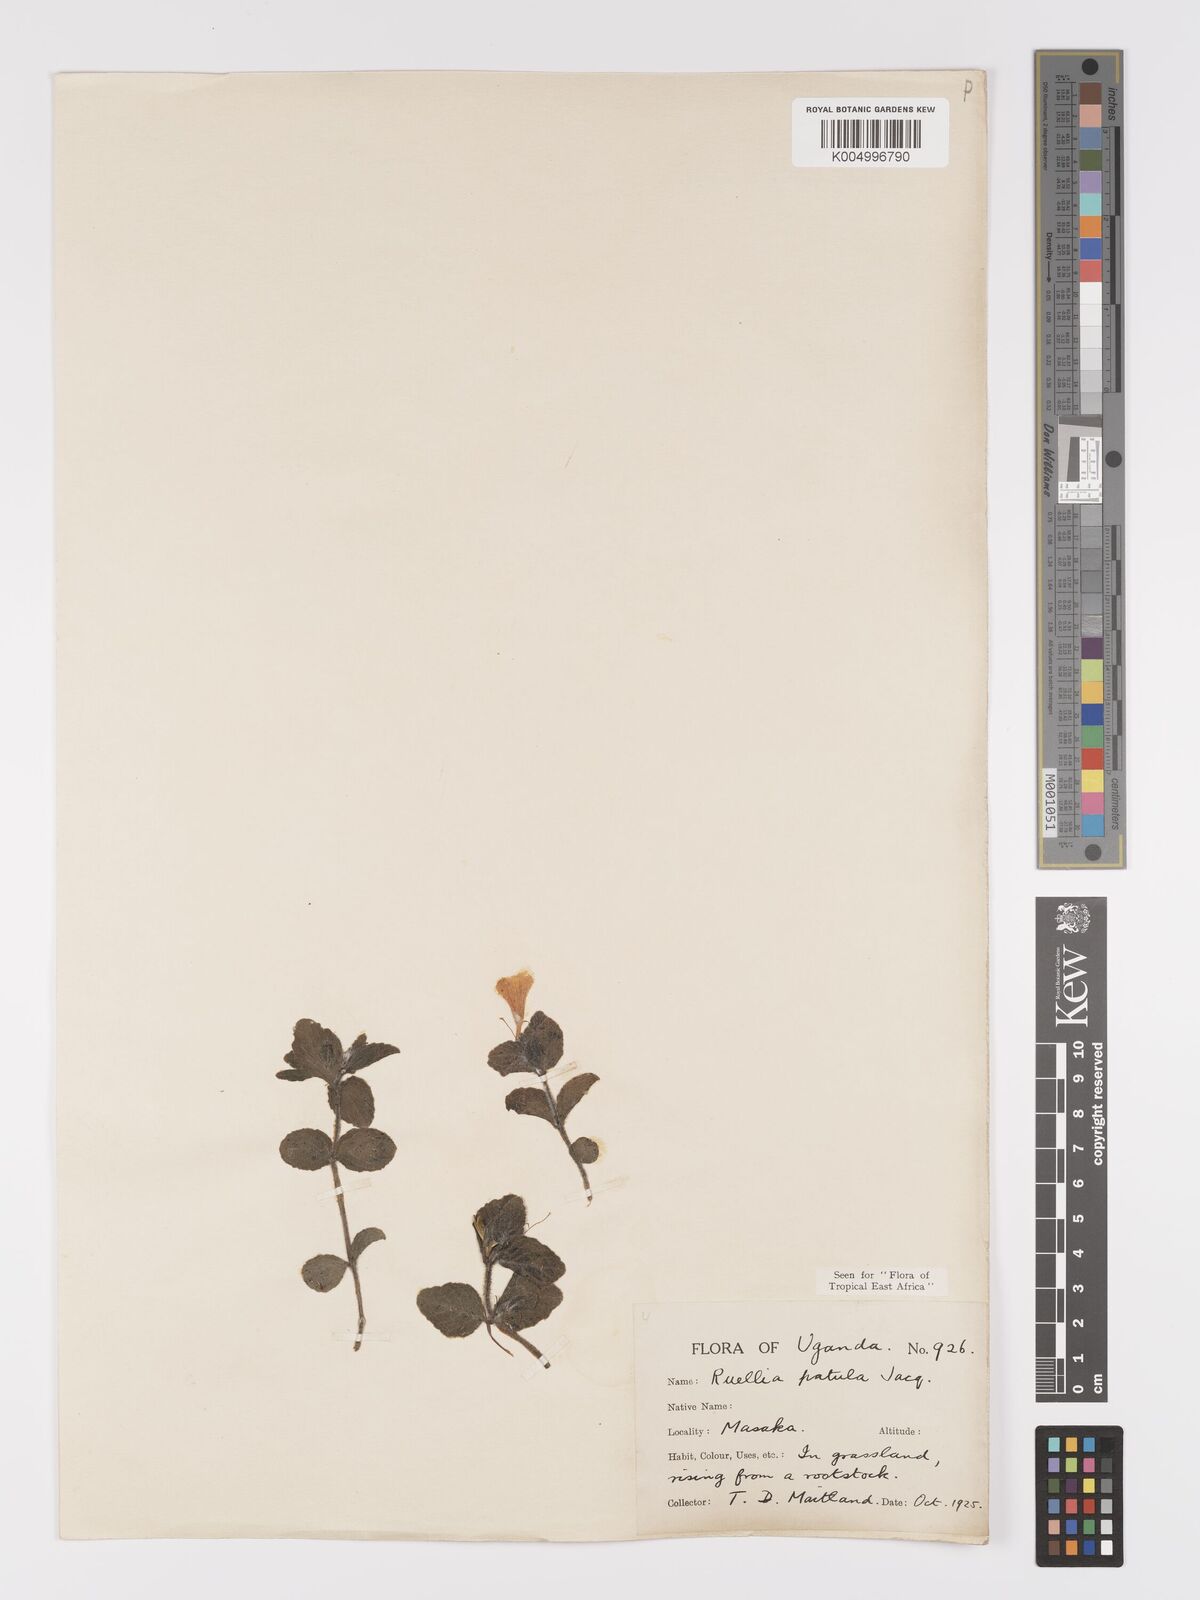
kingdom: Plantae
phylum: Tracheophyta
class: Magnoliopsida
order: Lamiales
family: Acanthaceae
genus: Ruellia
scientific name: Ruellia patula
